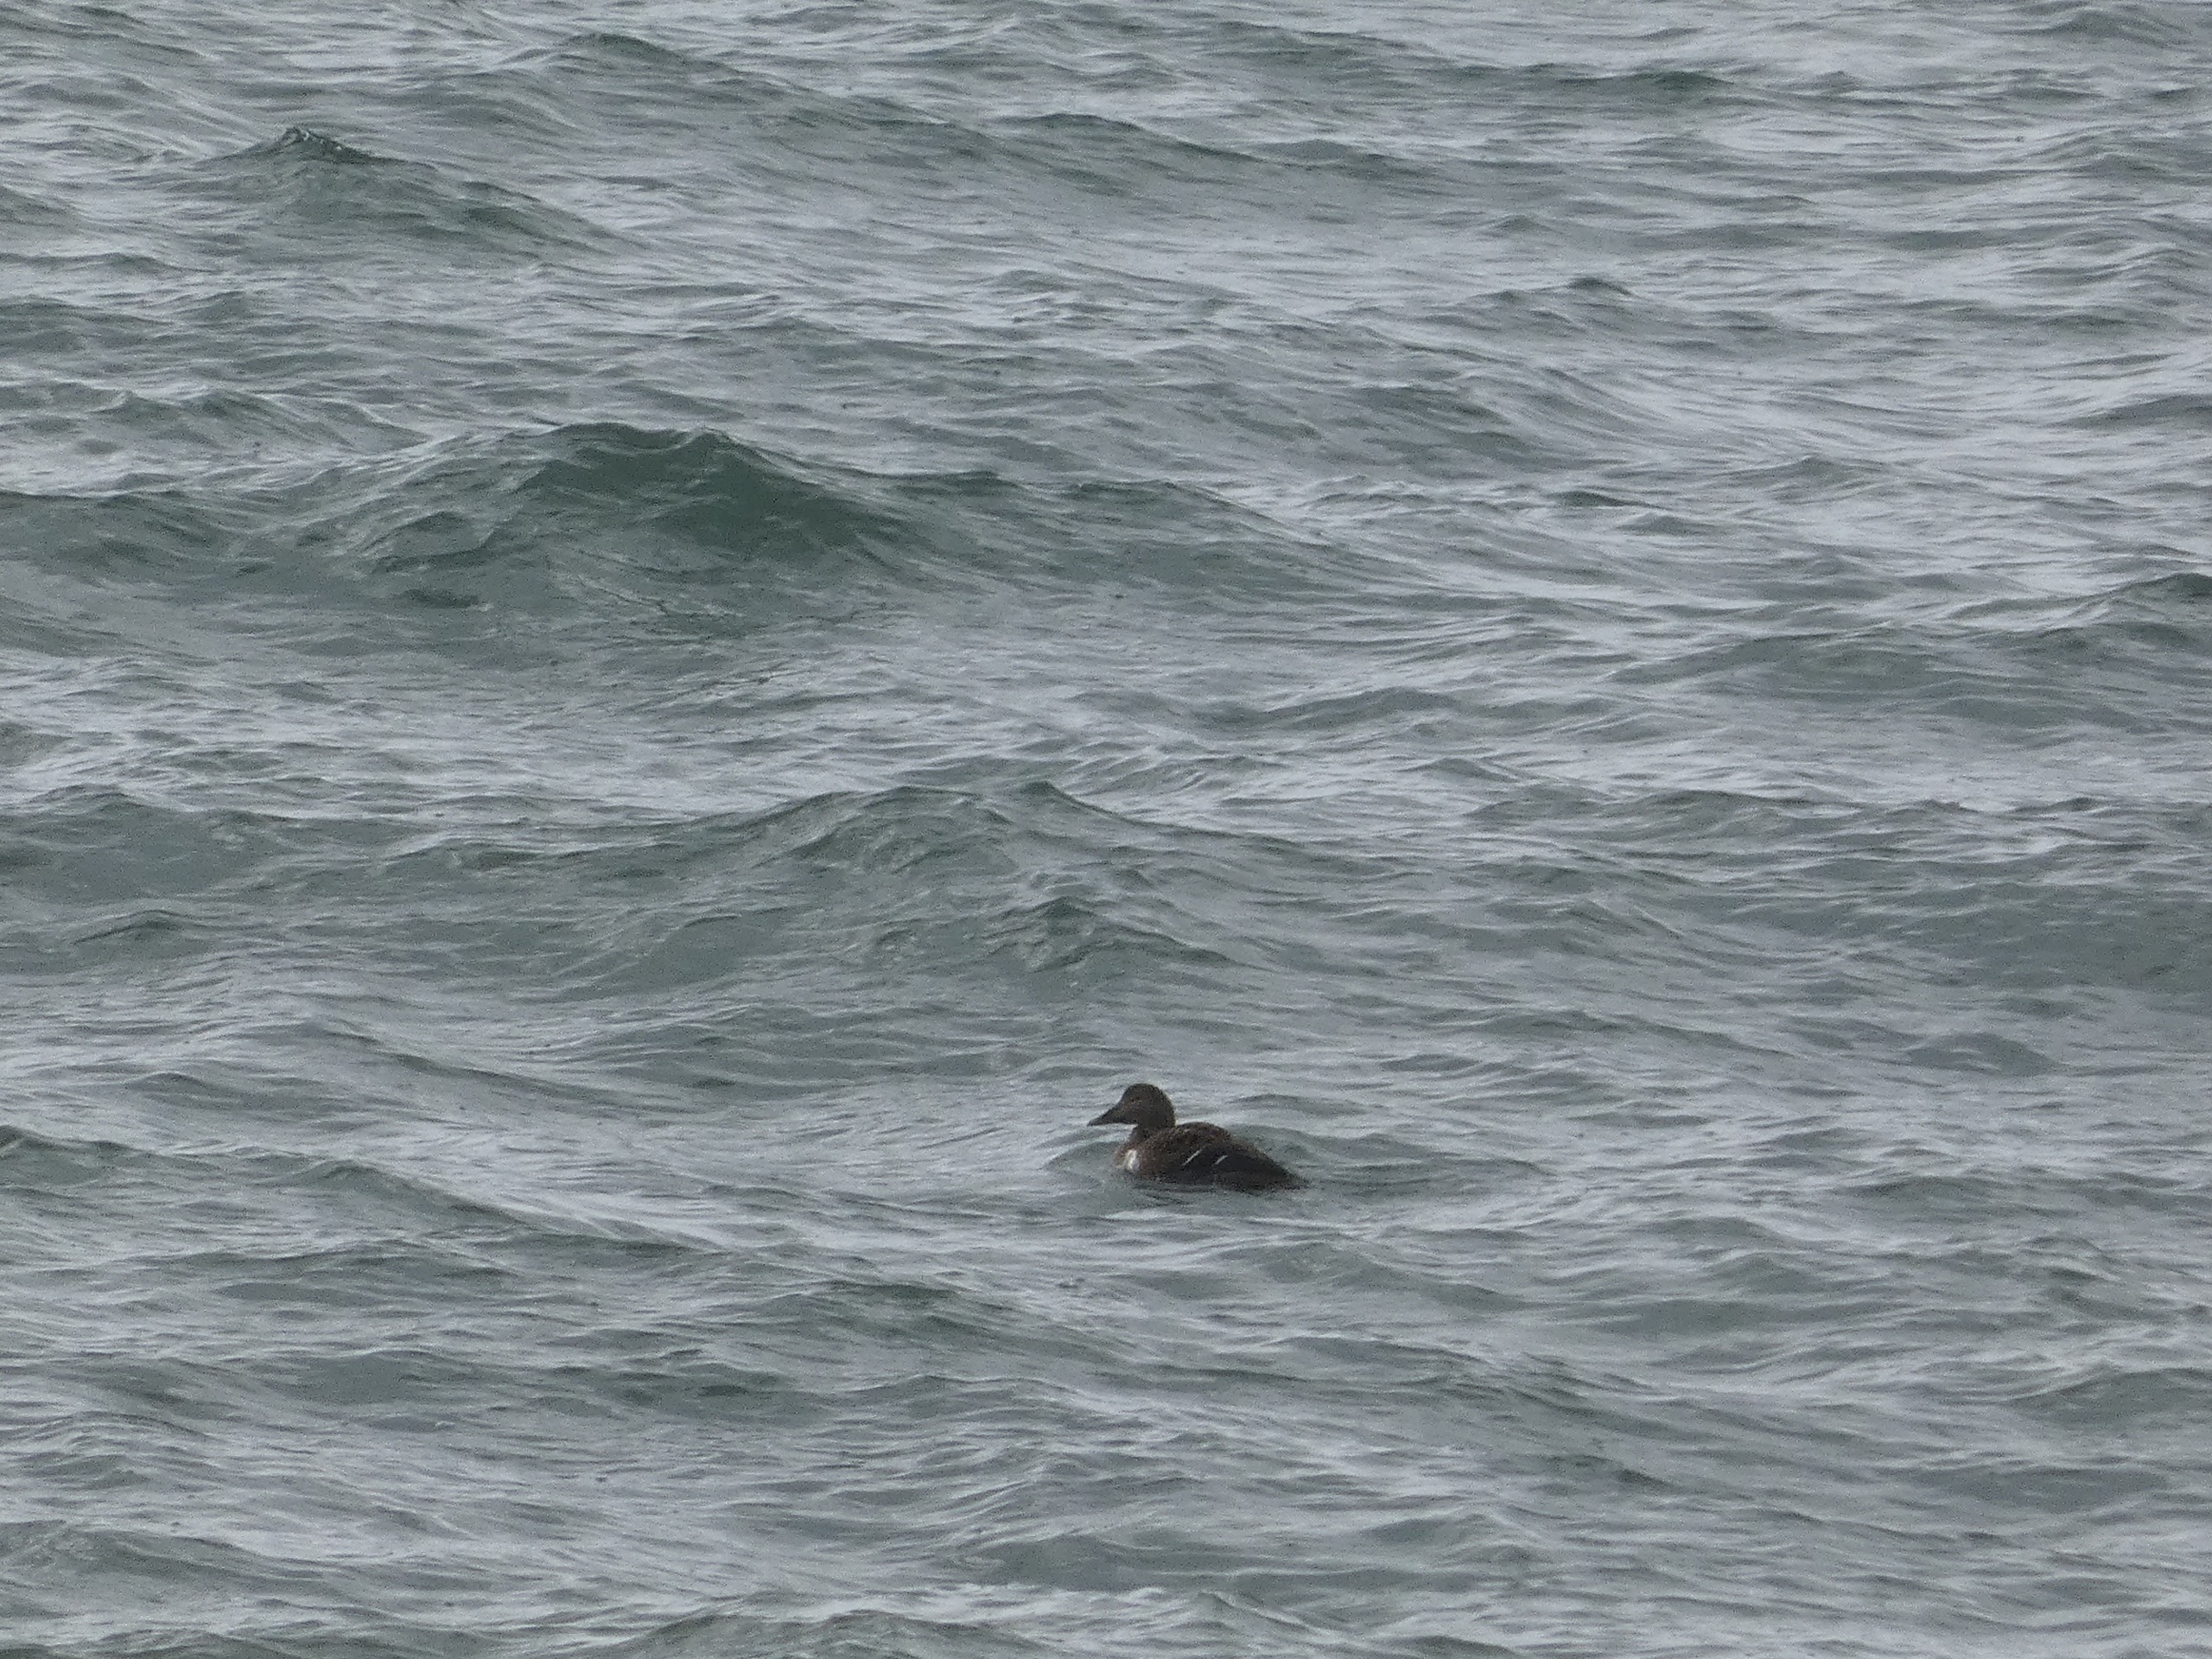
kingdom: Animalia
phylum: Chordata
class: Aves
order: Anseriformes
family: Anatidae
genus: Somateria
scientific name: Somateria mollissima
